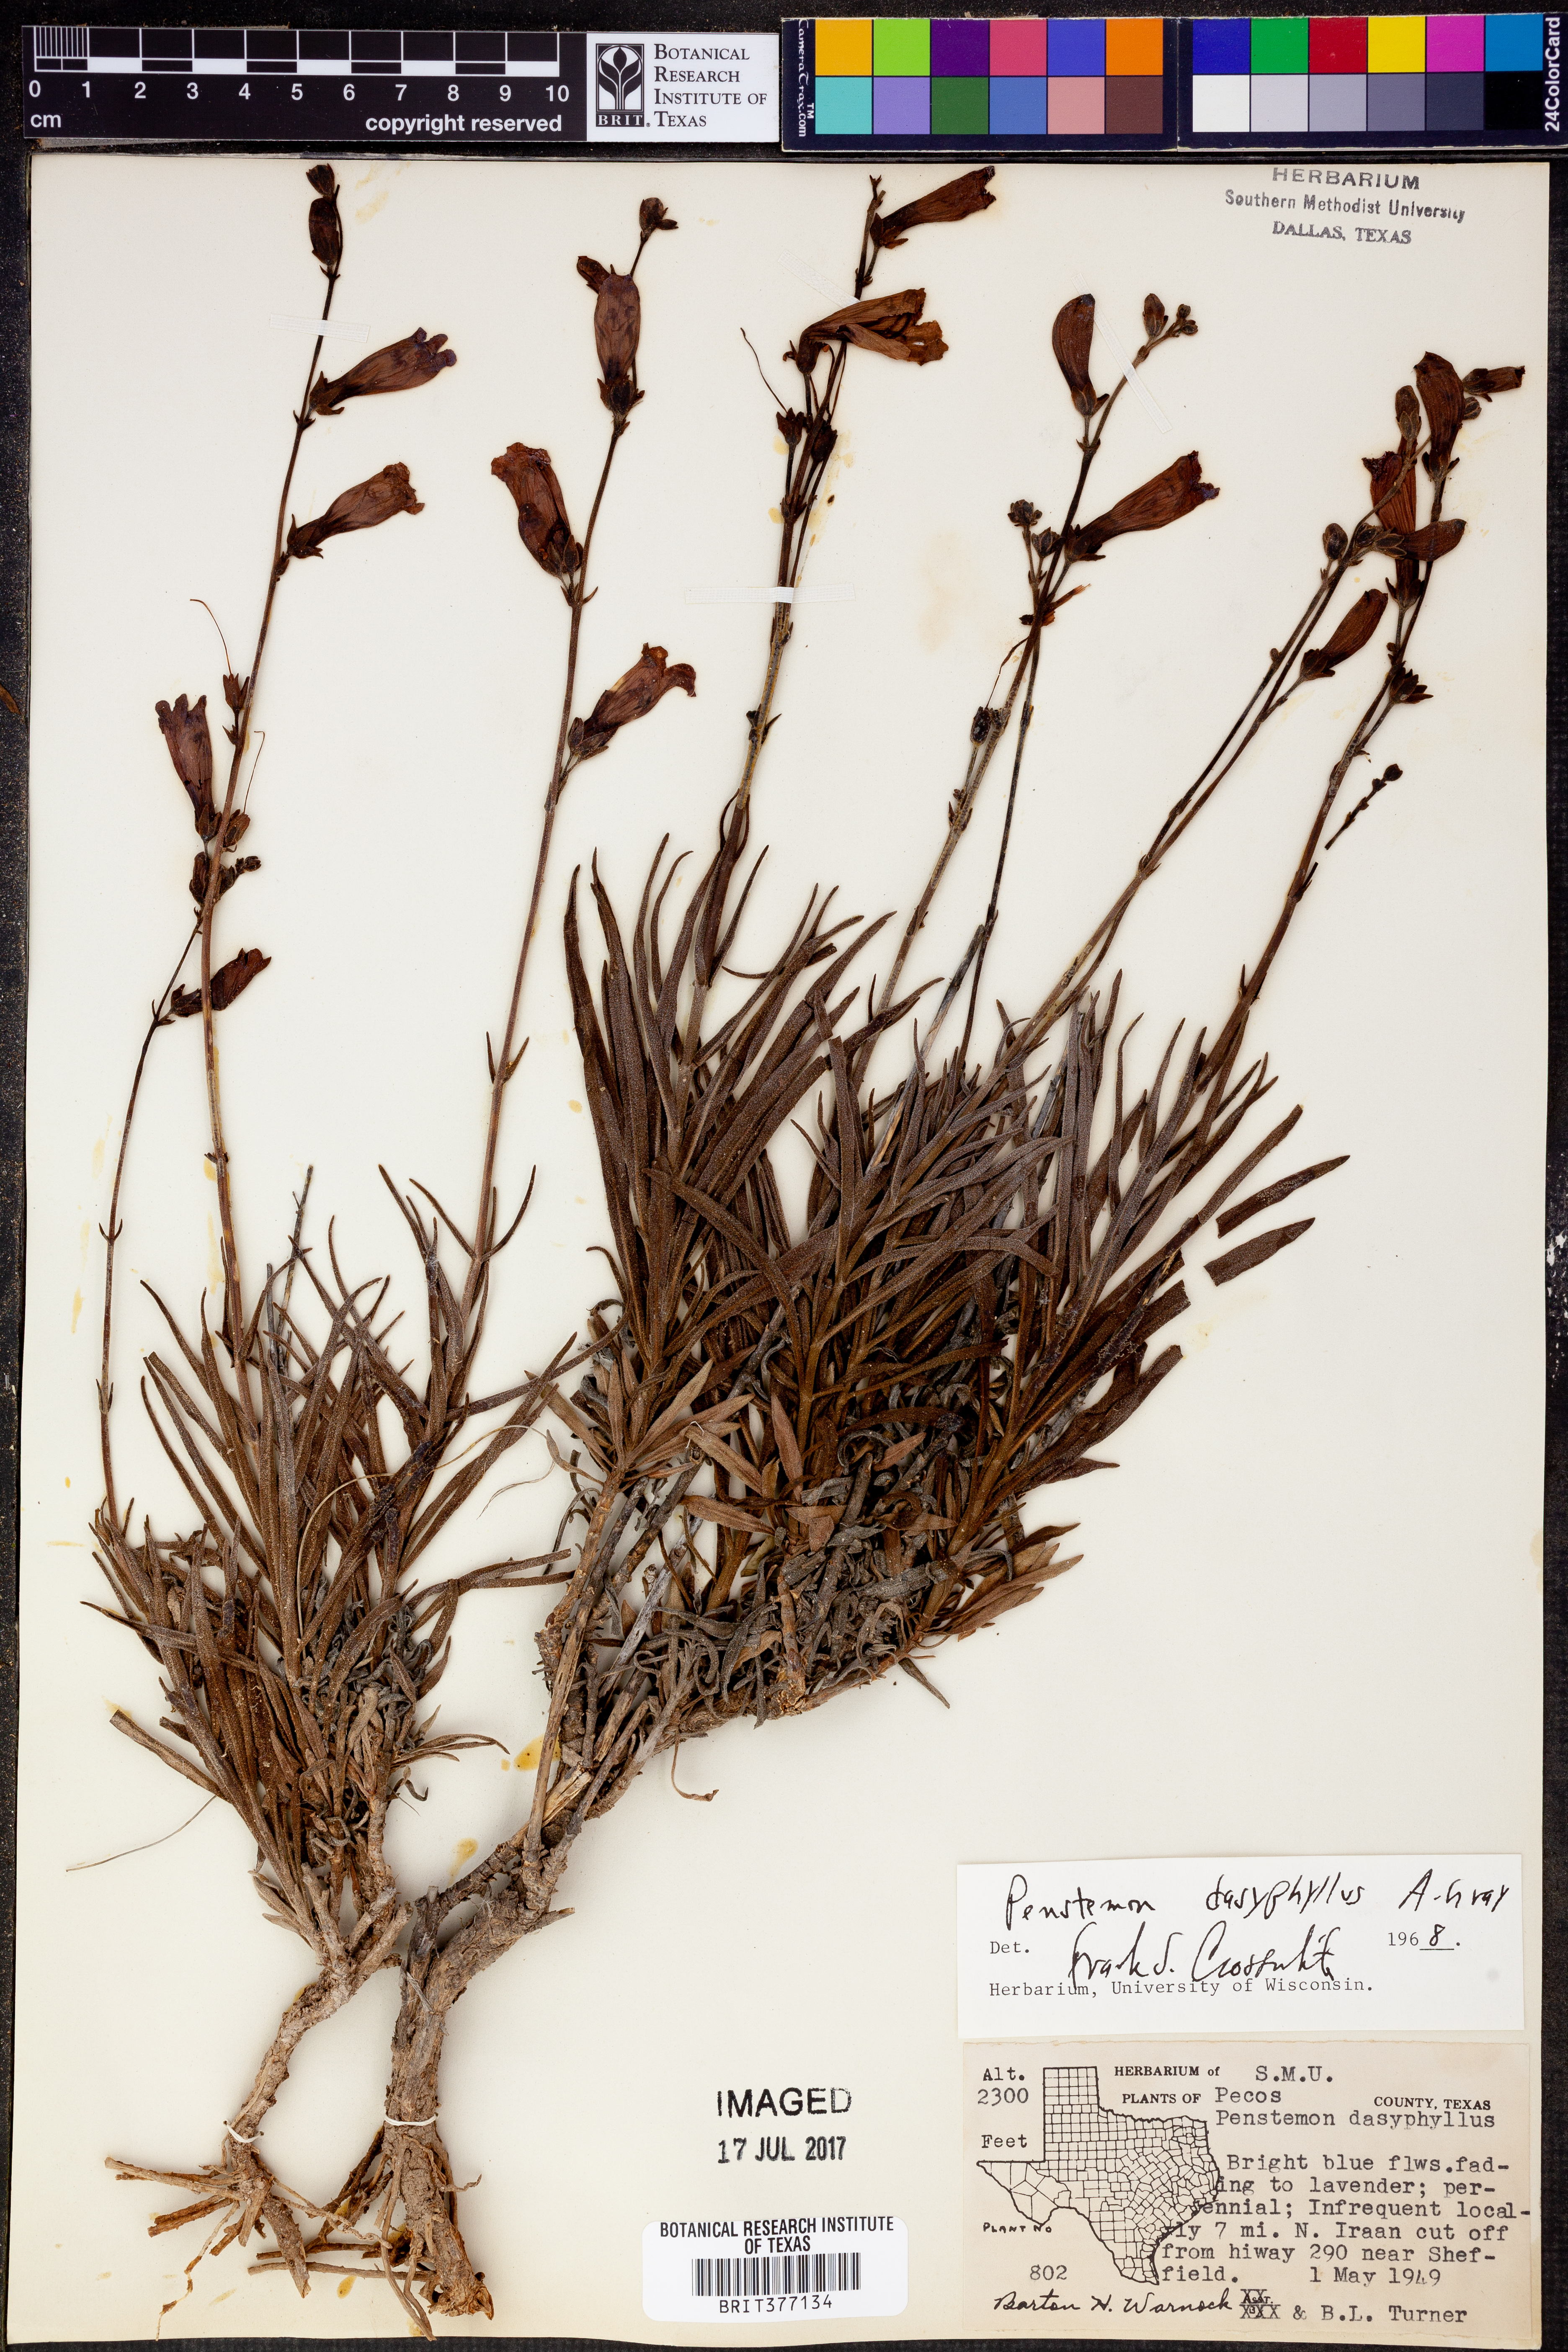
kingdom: Plantae
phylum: Tracheophyta
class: Magnoliopsida
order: Lamiales
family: Plantaginaceae
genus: Penstemon
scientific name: Penstemon dasyphyllus
